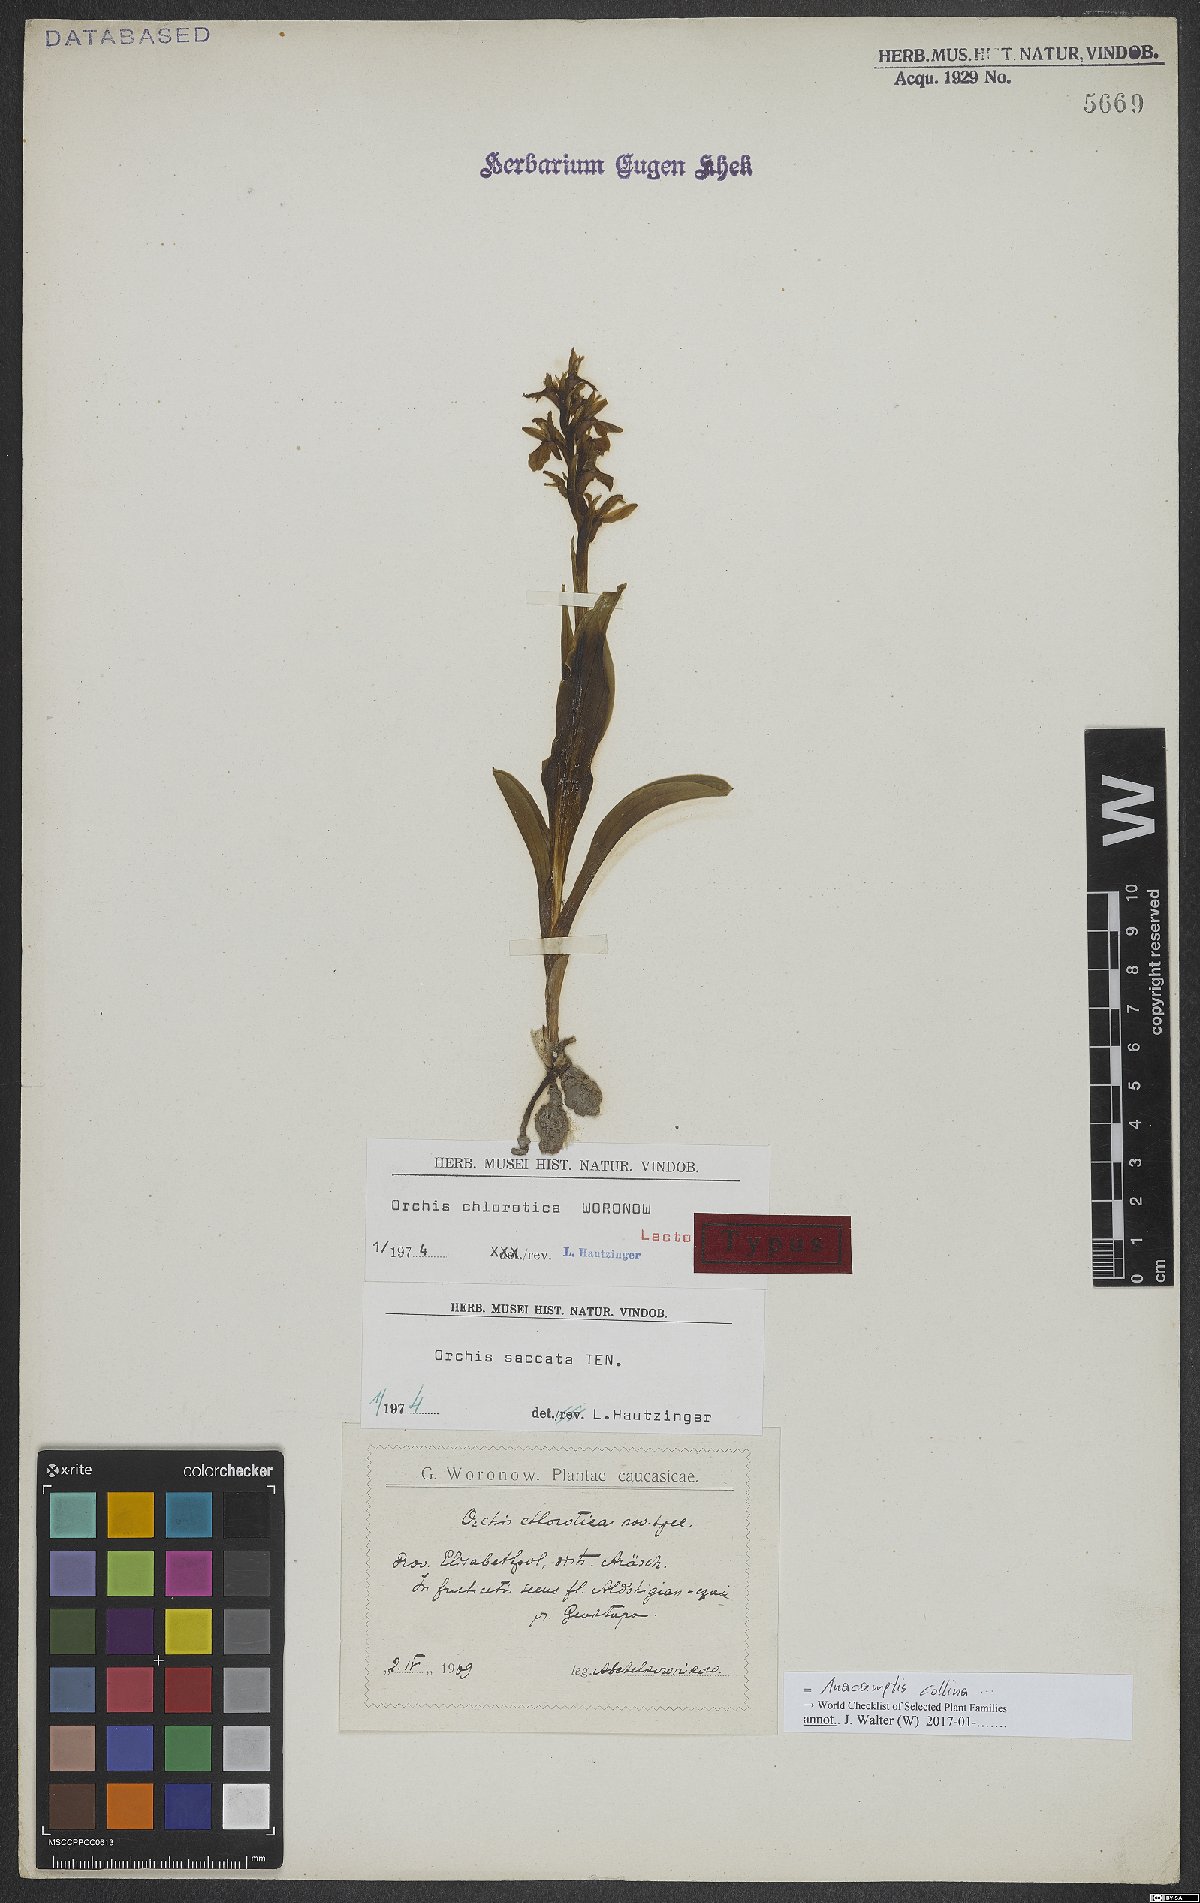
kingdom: Plantae
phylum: Tracheophyta
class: Liliopsida
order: Asparagales
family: Orchidaceae
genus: Anacamptis
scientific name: Anacamptis collina
